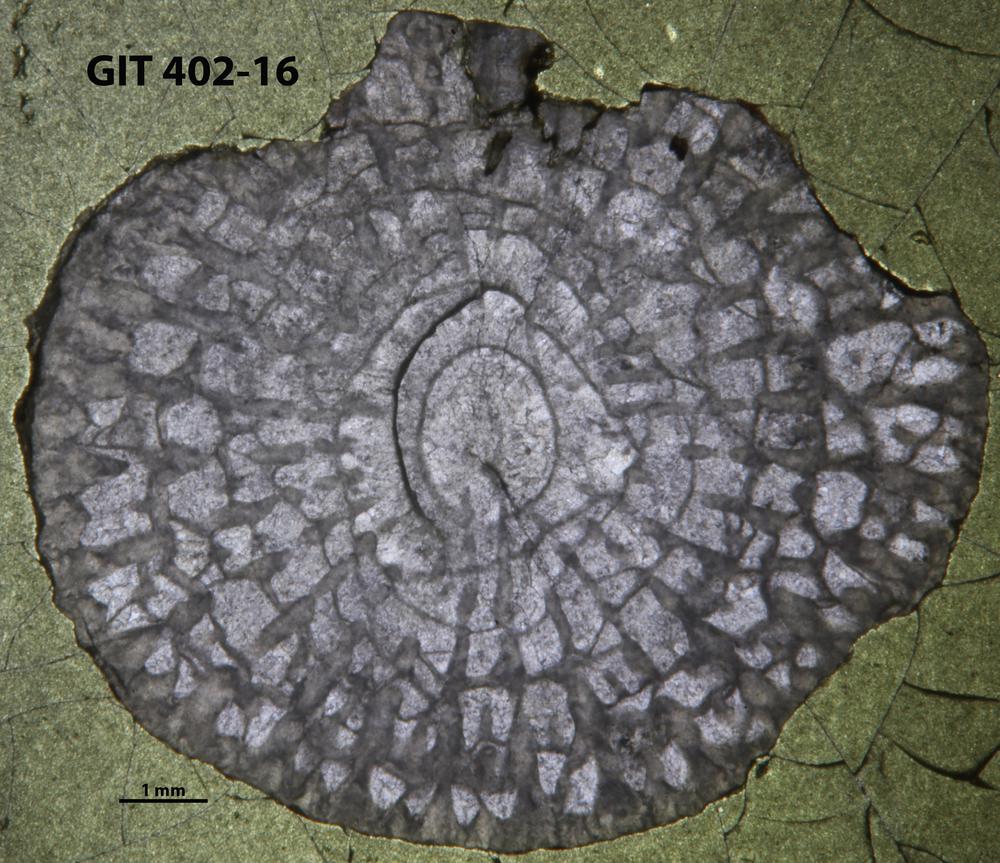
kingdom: Animalia
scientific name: Animalia
